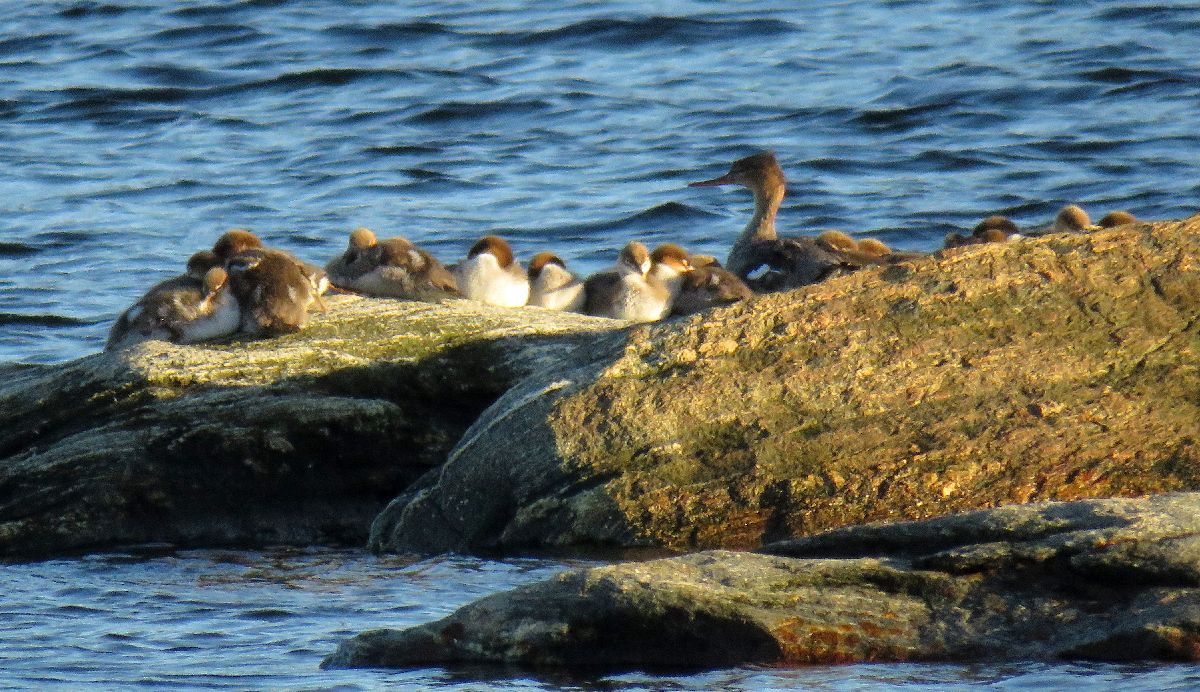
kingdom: Animalia
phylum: Chordata
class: Aves
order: Anseriformes
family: Anatidae
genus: Mergus
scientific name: Mergus serrator
